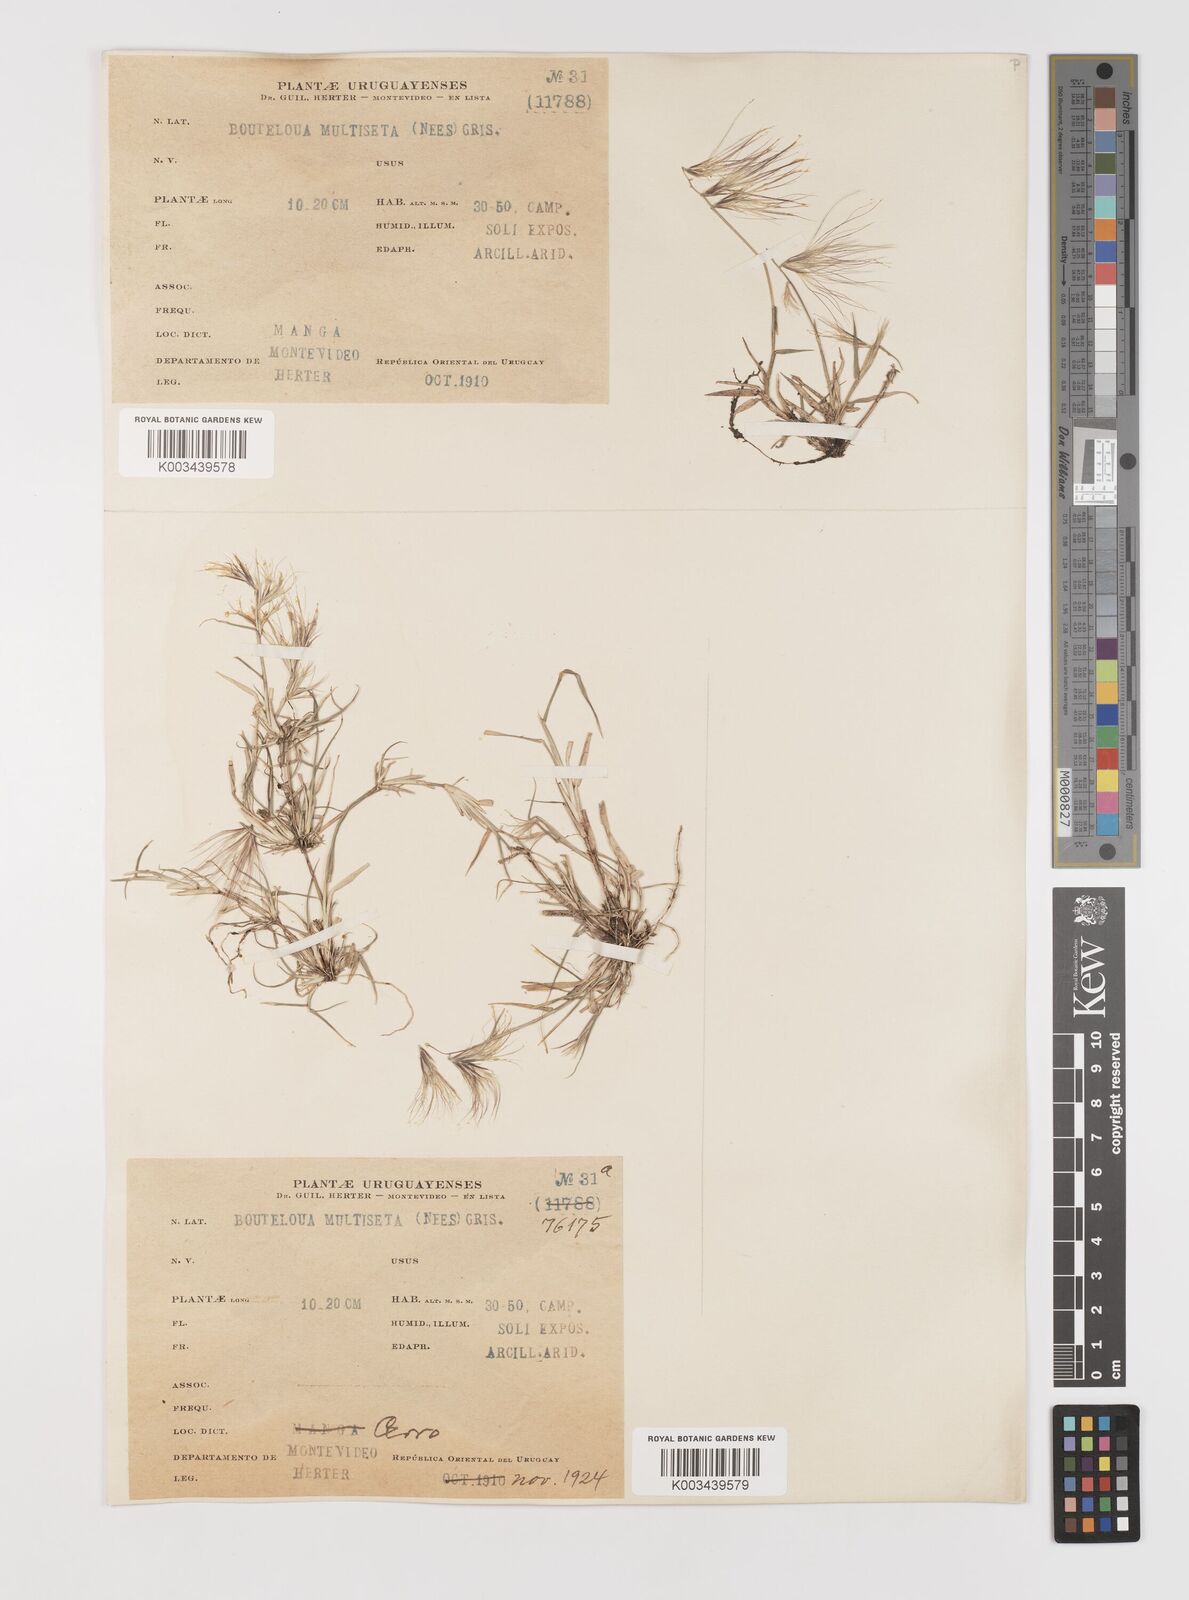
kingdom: Plantae
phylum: Tracheophyta
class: Liliopsida
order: Poales
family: Poaceae
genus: Bouteloua
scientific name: Bouteloua megapotamica
